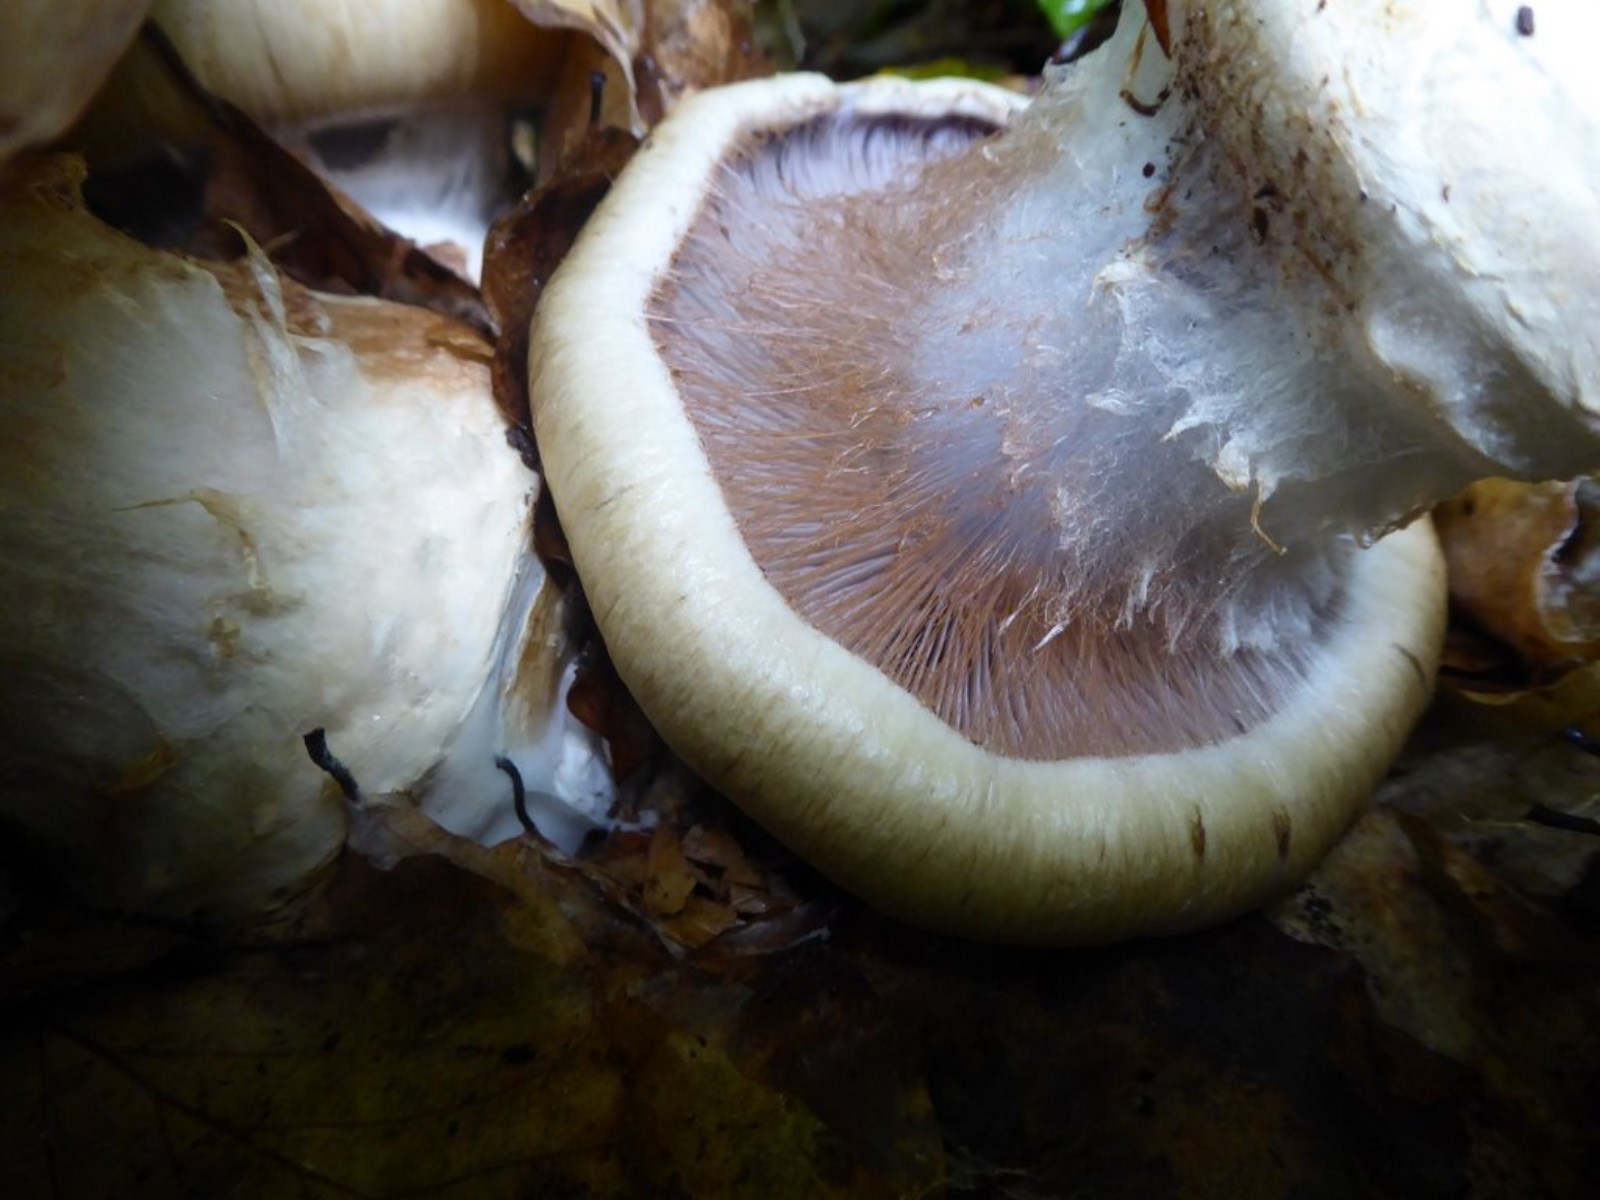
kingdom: Fungi
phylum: Basidiomycota
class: Agaricomycetes
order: Agaricales
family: Cortinariaceae
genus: Cortinarius
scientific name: Cortinarius anserinus
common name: bøge-slørhat
